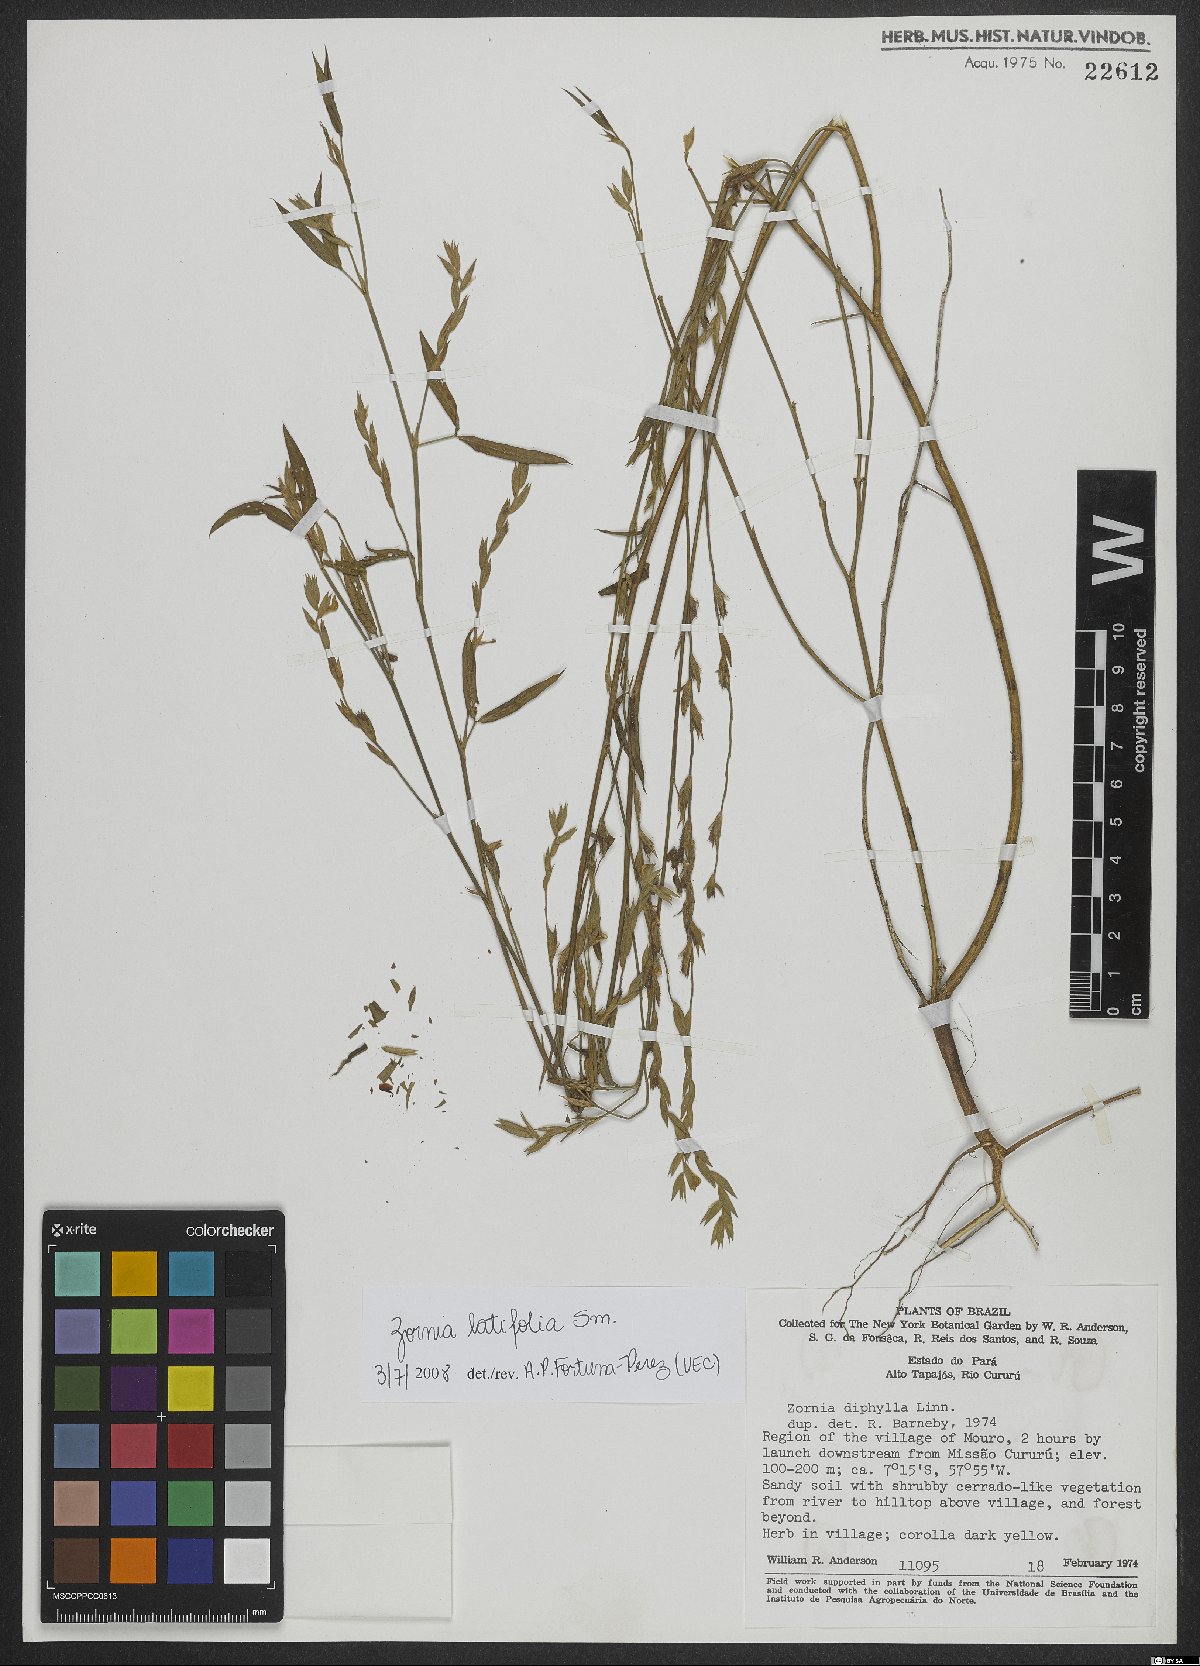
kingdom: Plantae
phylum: Tracheophyta
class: Magnoliopsida
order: Fabales
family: Fabaceae
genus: Zornia
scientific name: Zornia sericea
